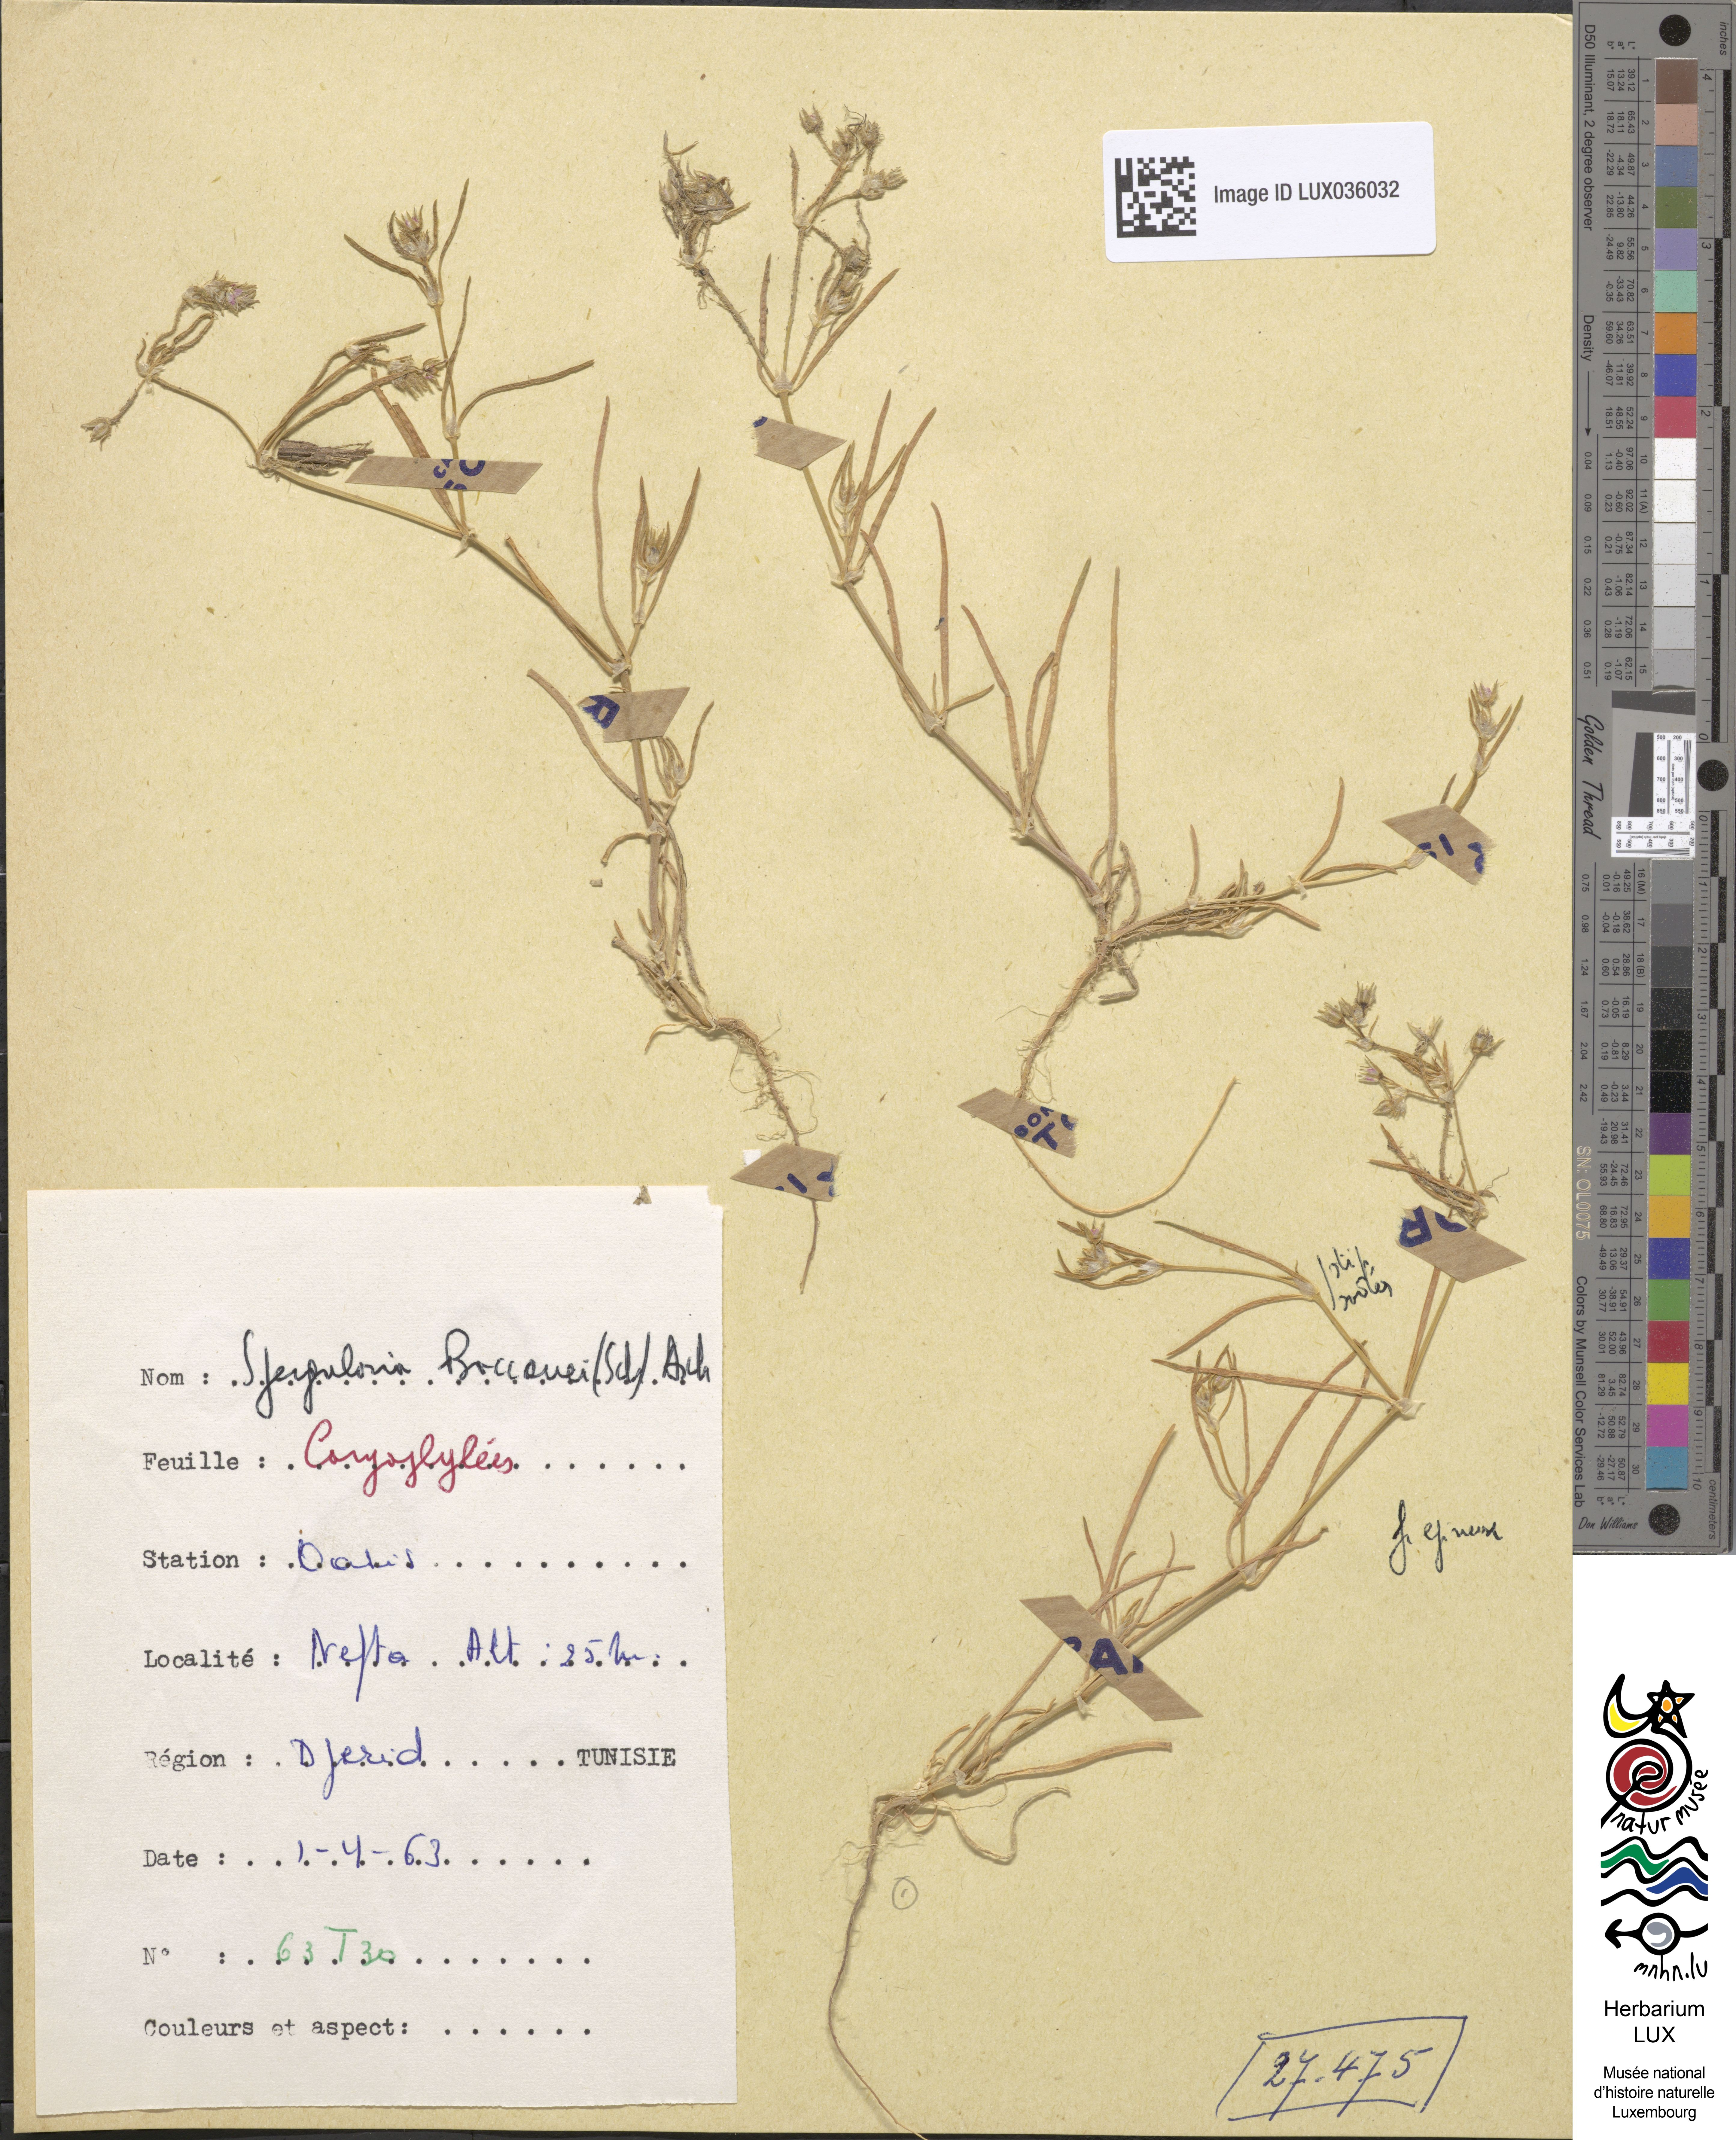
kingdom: Plantae
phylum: Tracheophyta
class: Magnoliopsida
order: Caryophyllales
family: Caryophyllaceae
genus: Spergularia
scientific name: Spergularia bocconei
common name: Greek sea-spurrey
